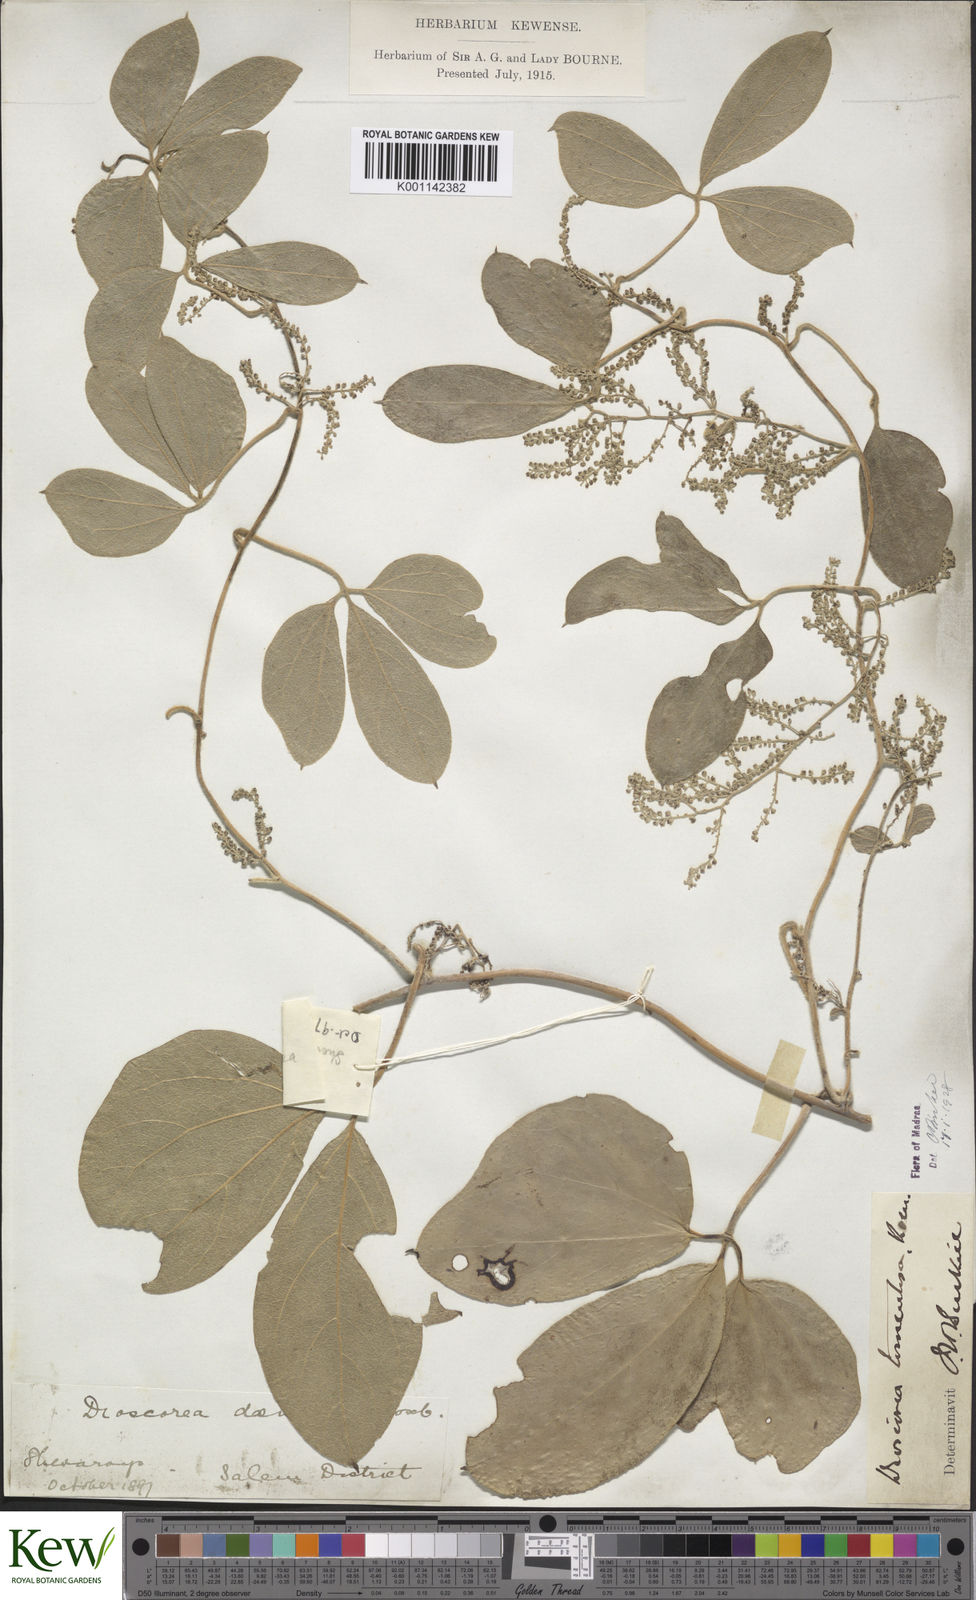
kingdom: Plantae
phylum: Tracheophyta
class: Liliopsida
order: Dioscoreales
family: Dioscoreaceae
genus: Dioscorea
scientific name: Dioscorea
